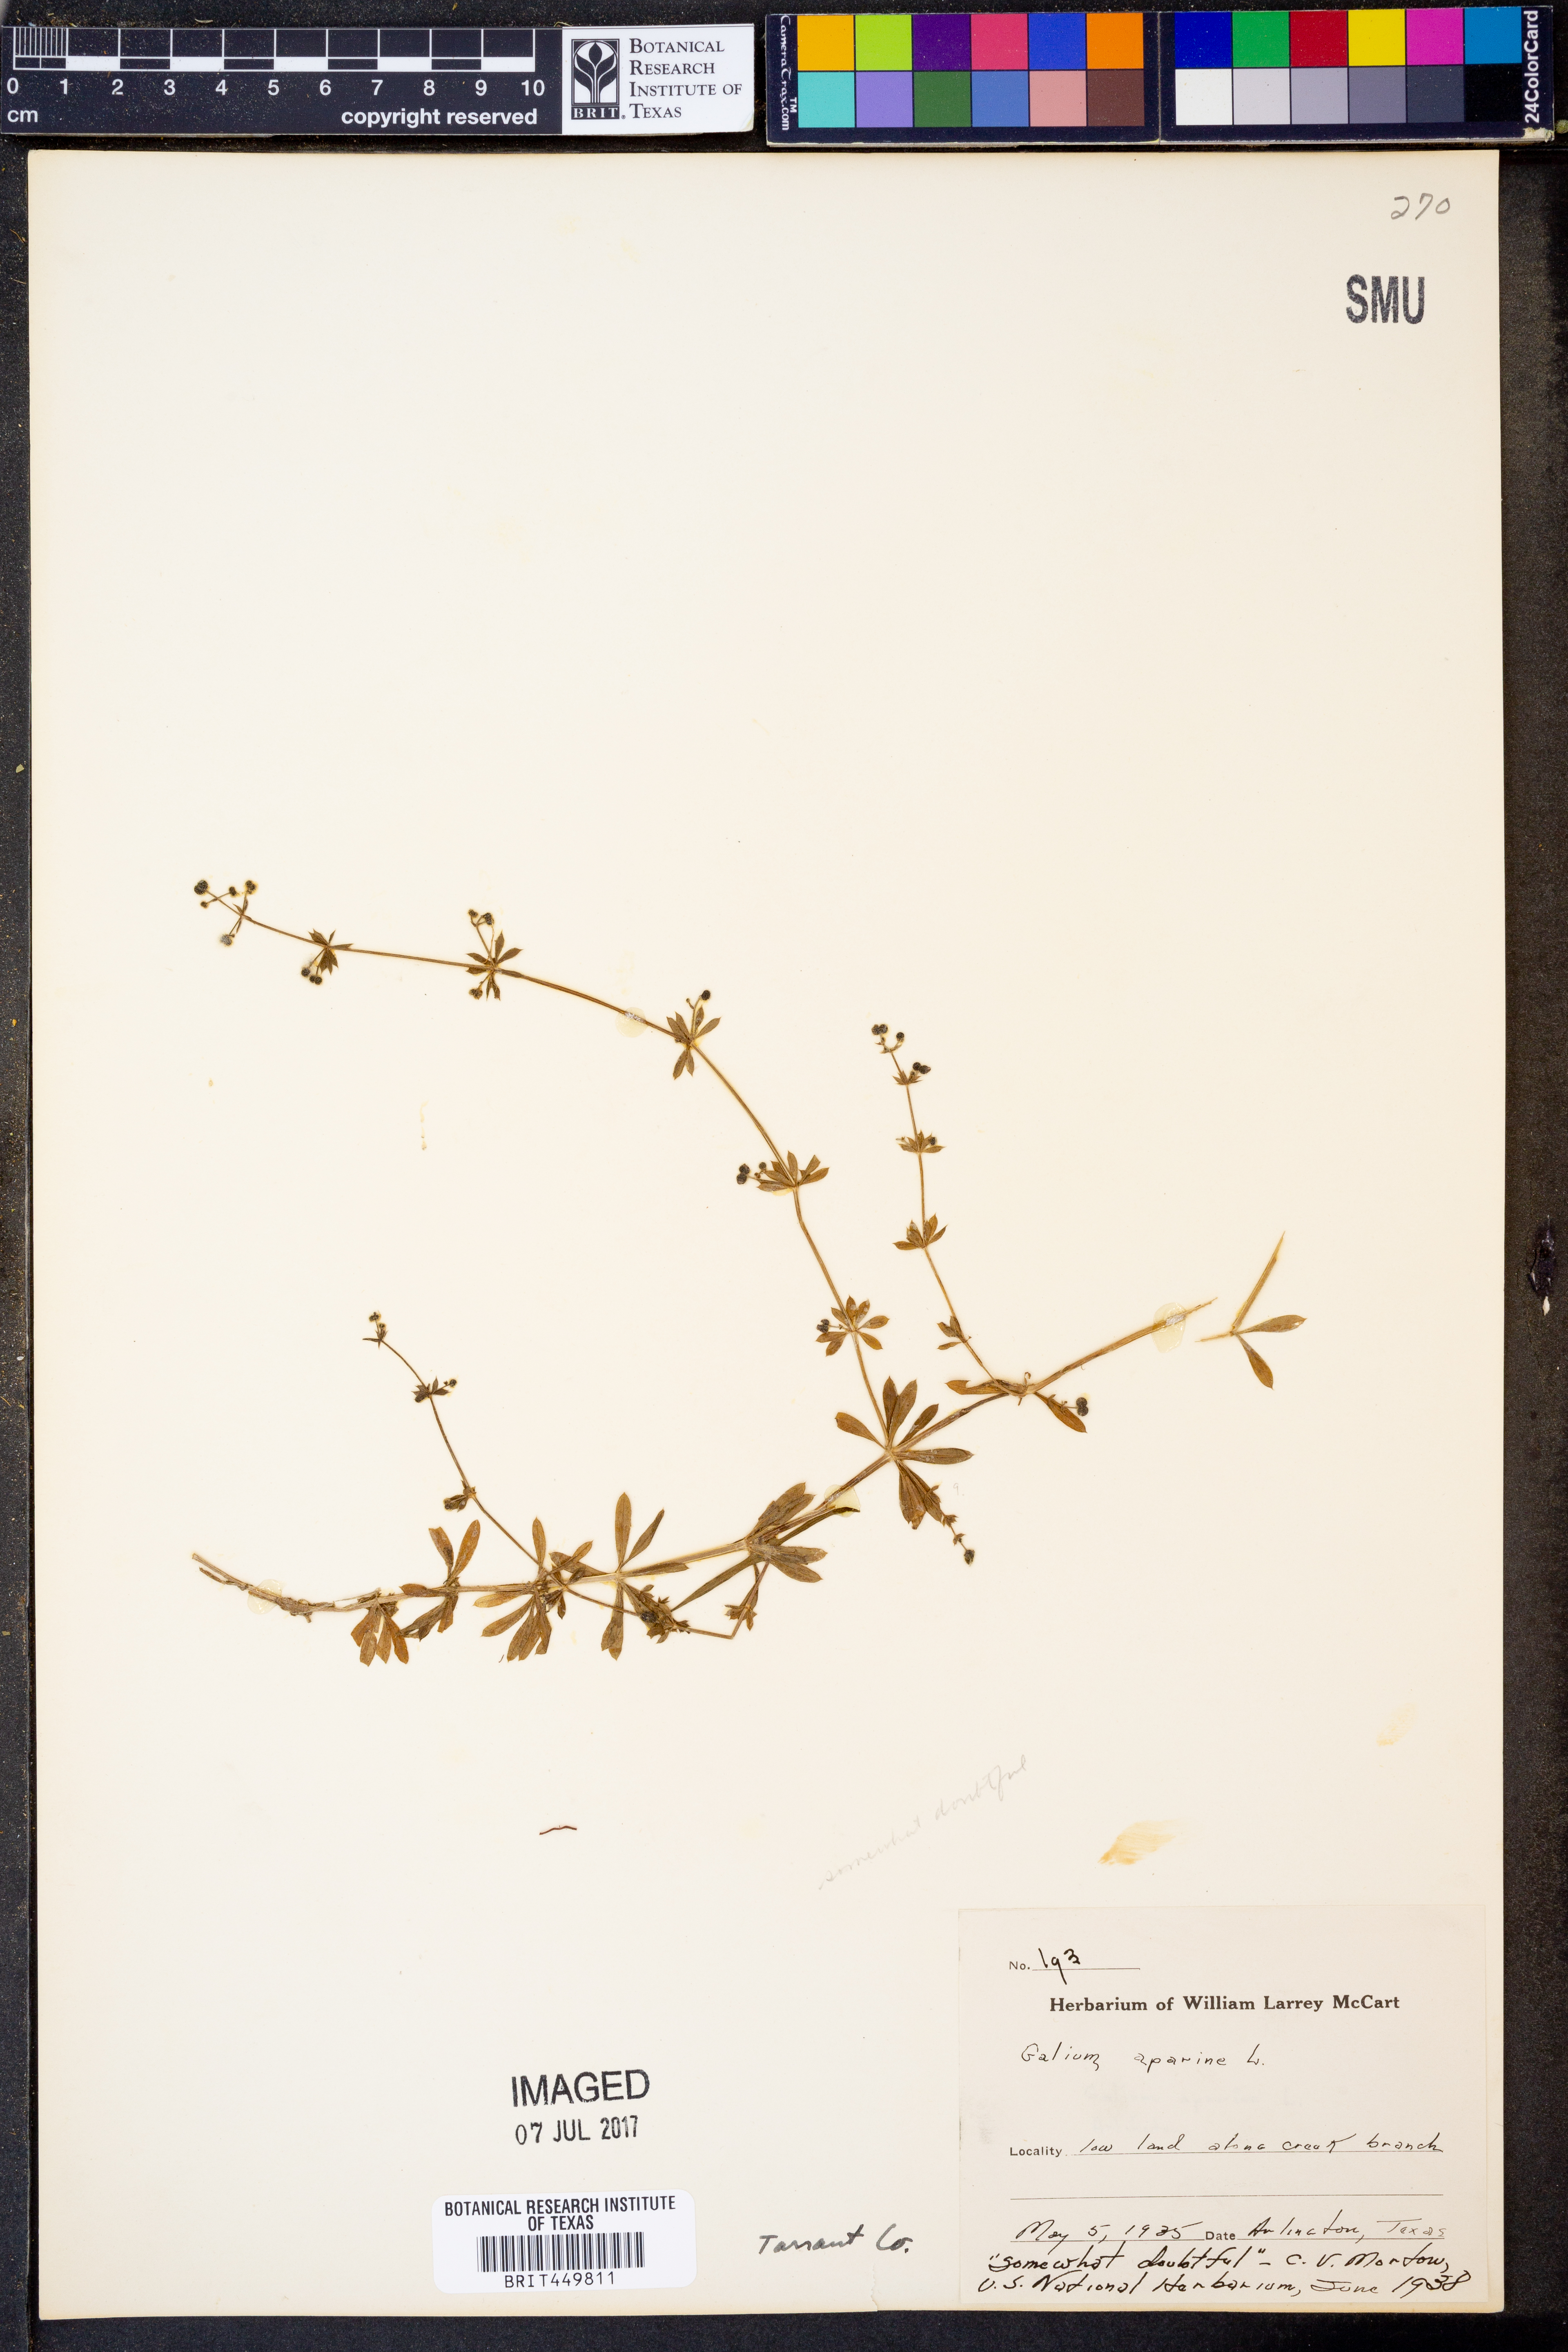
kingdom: Plantae
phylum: Tracheophyta
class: Magnoliopsida
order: Gentianales
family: Rubiaceae
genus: Galium
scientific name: Galium aparine
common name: Cleavers
